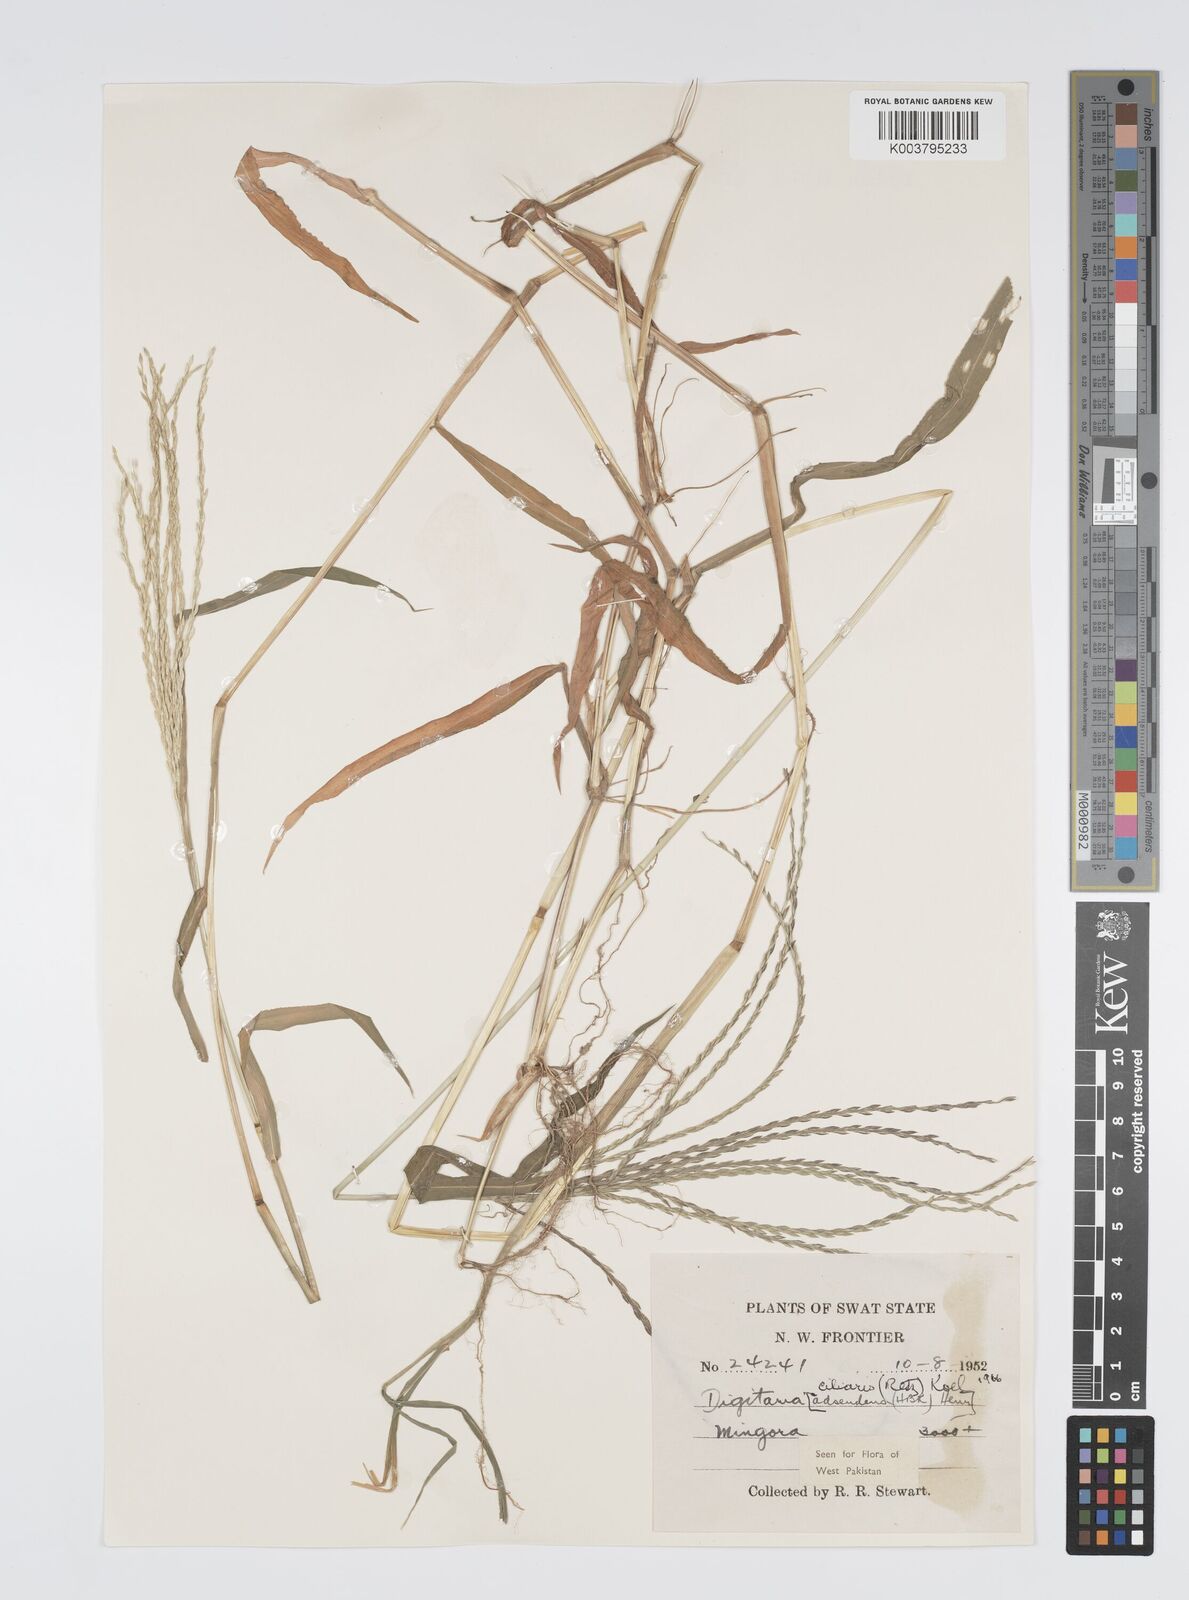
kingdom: Plantae
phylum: Tracheophyta
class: Liliopsida
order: Poales
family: Poaceae
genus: Digitaria
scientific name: Digitaria ciliaris
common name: Tropical finger-grass
